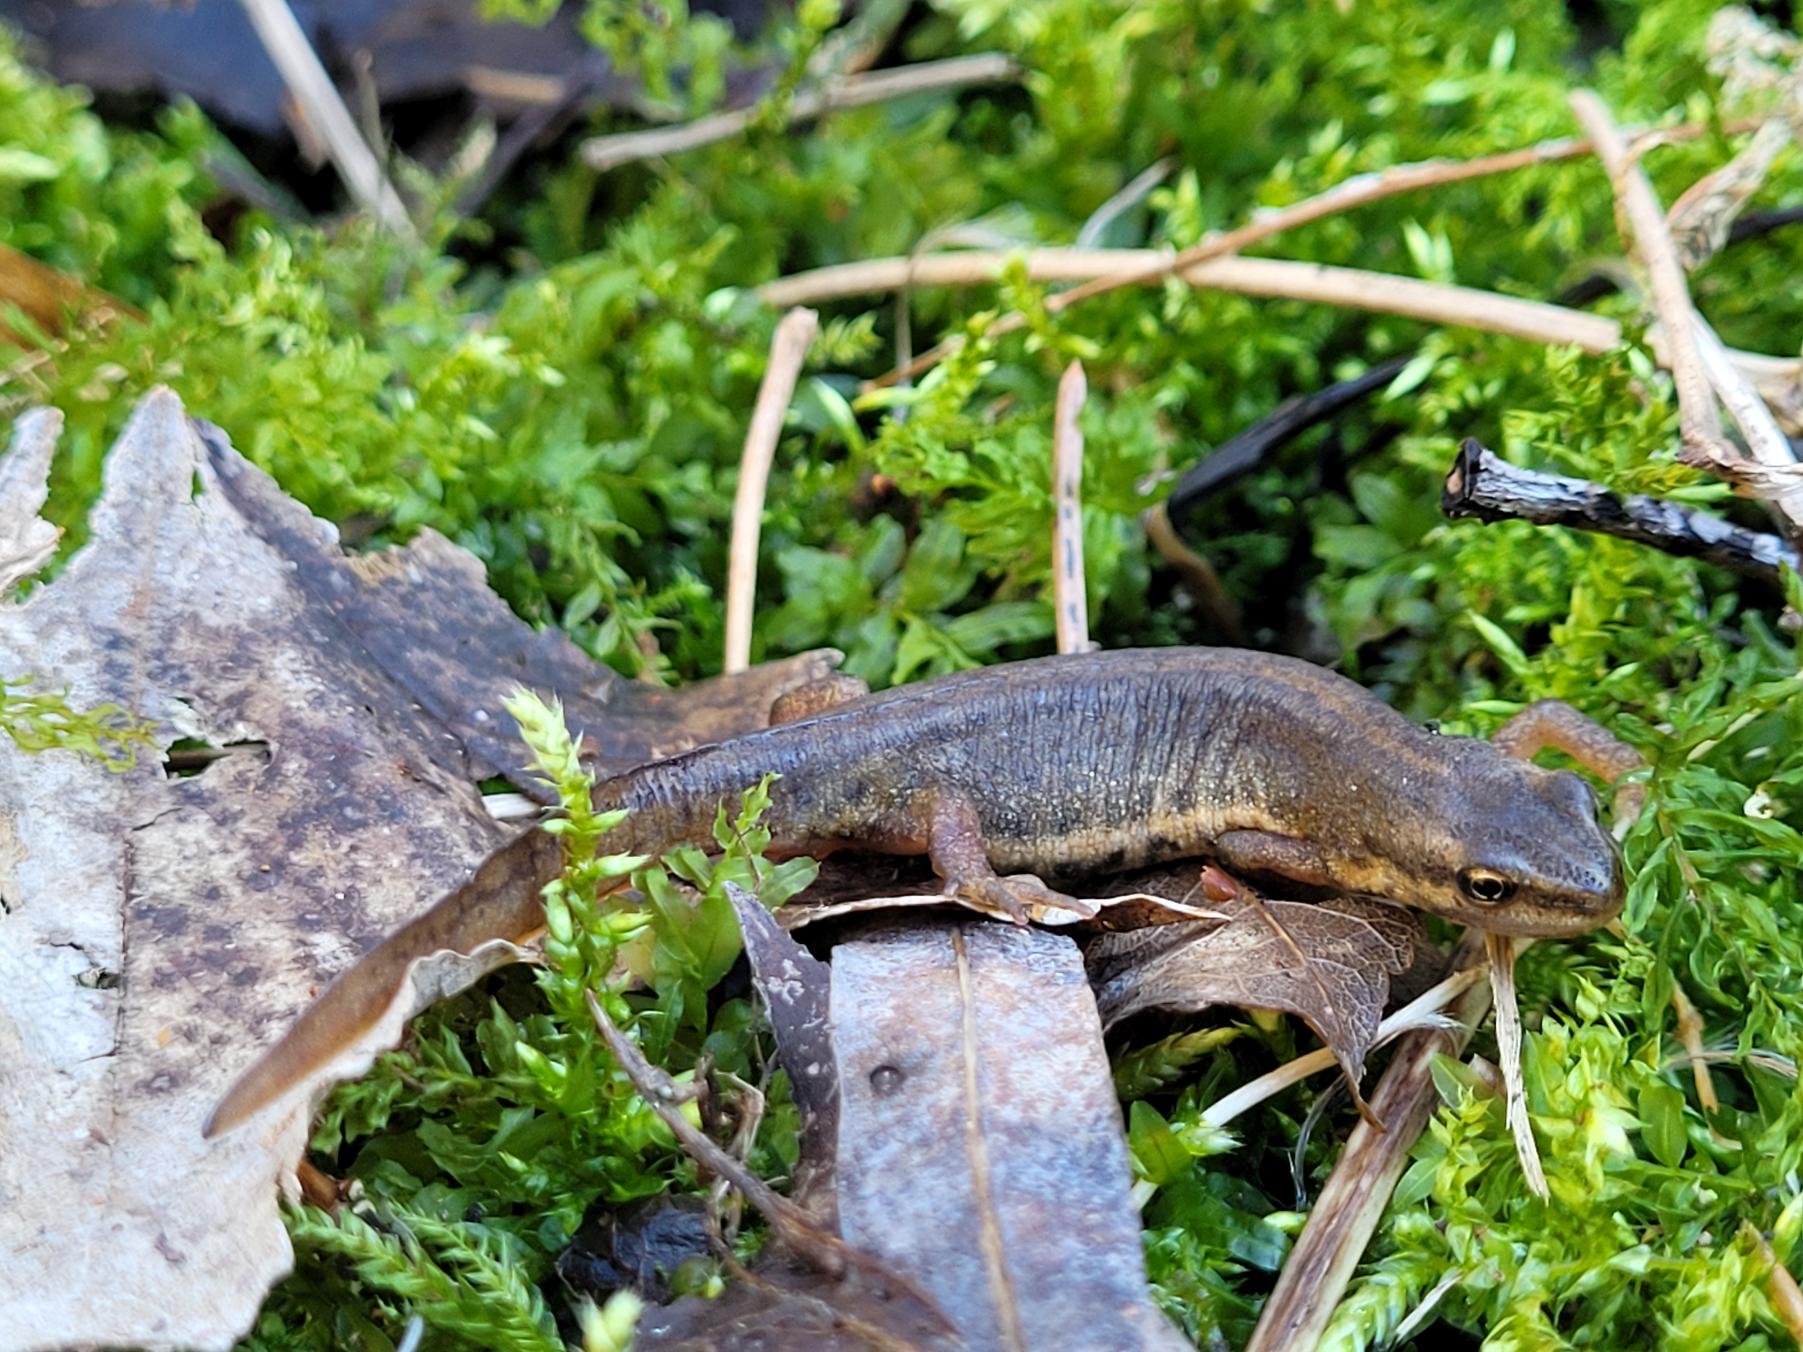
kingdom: Animalia
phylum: Chordata
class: Amphibia
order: Caudata
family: Salamandridae
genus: Lissotriton
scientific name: Lissotriton vulgaris
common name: Lille vandsalamander
